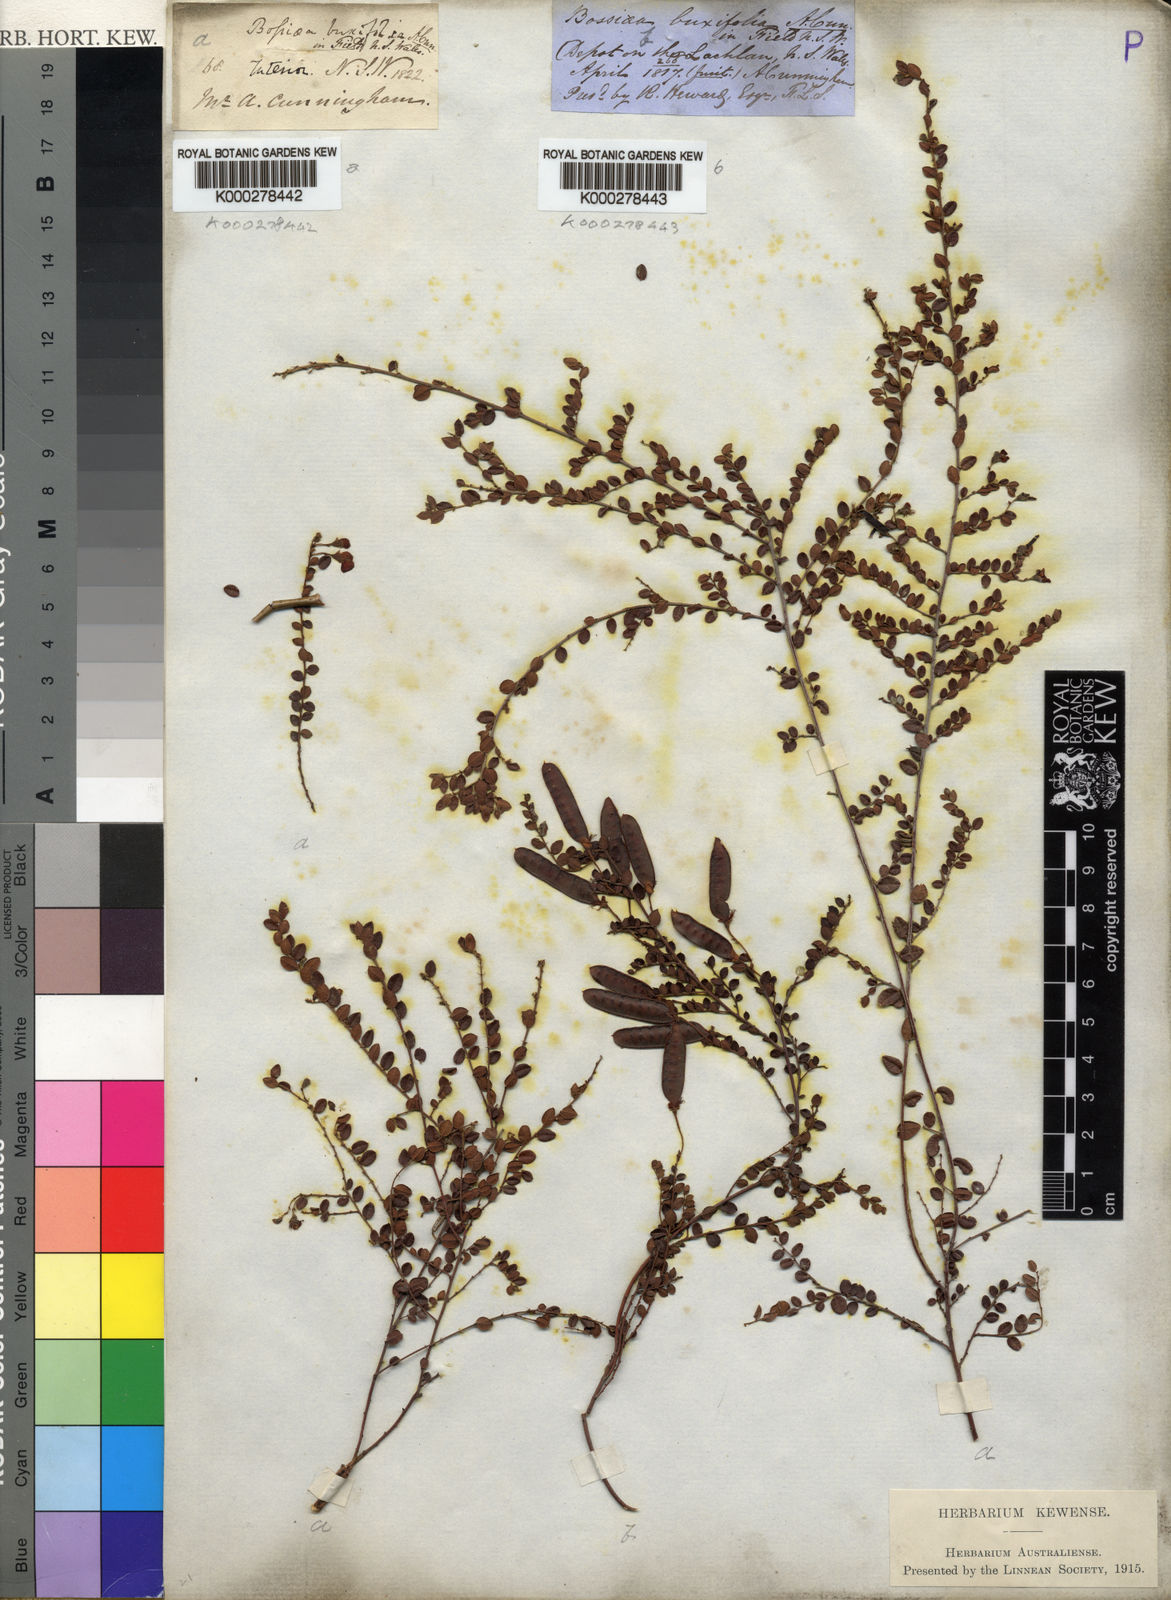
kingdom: Plantae
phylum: Tracheophyta
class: Magnoliopsida
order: Fabales
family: Fabaceae
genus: Bossiaea
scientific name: Bossiaea buxifolia
